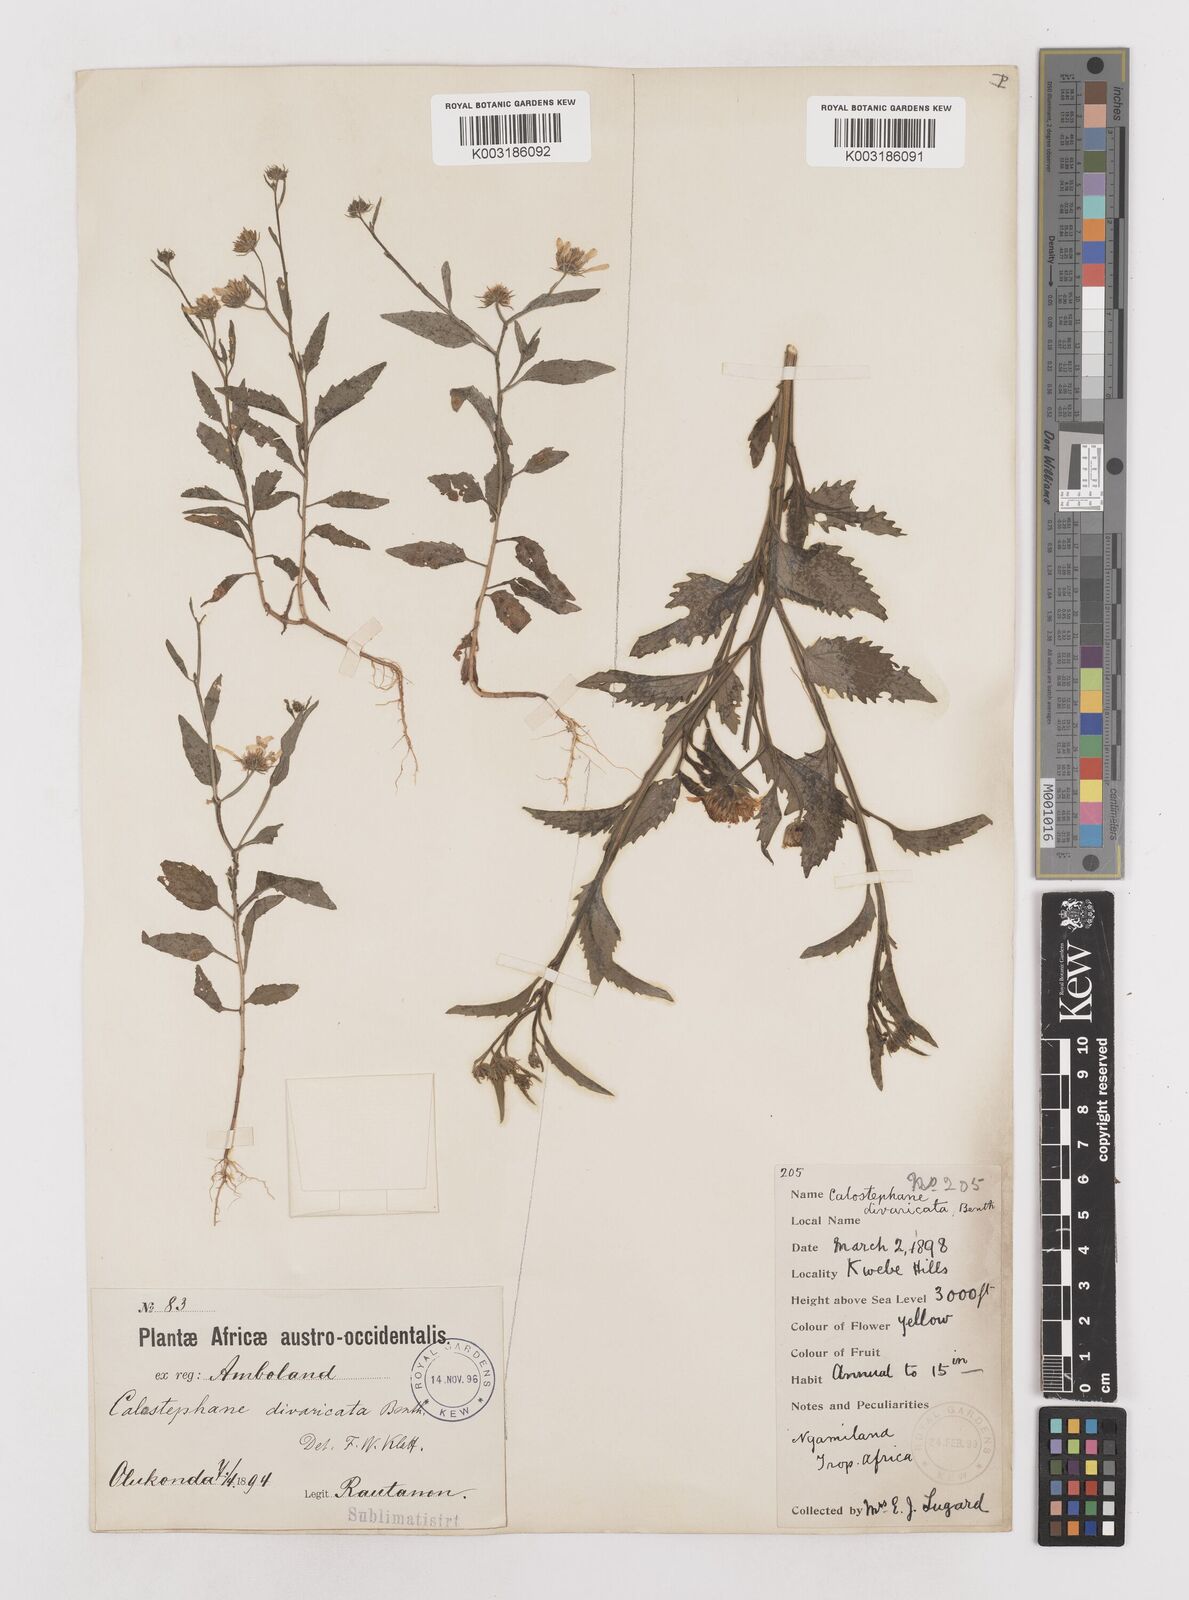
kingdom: Plantae
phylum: Tracheophyta
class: Magnoliopsida
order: Asterales
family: Asteraceae
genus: Calostephane
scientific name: Calostephane divaricata
